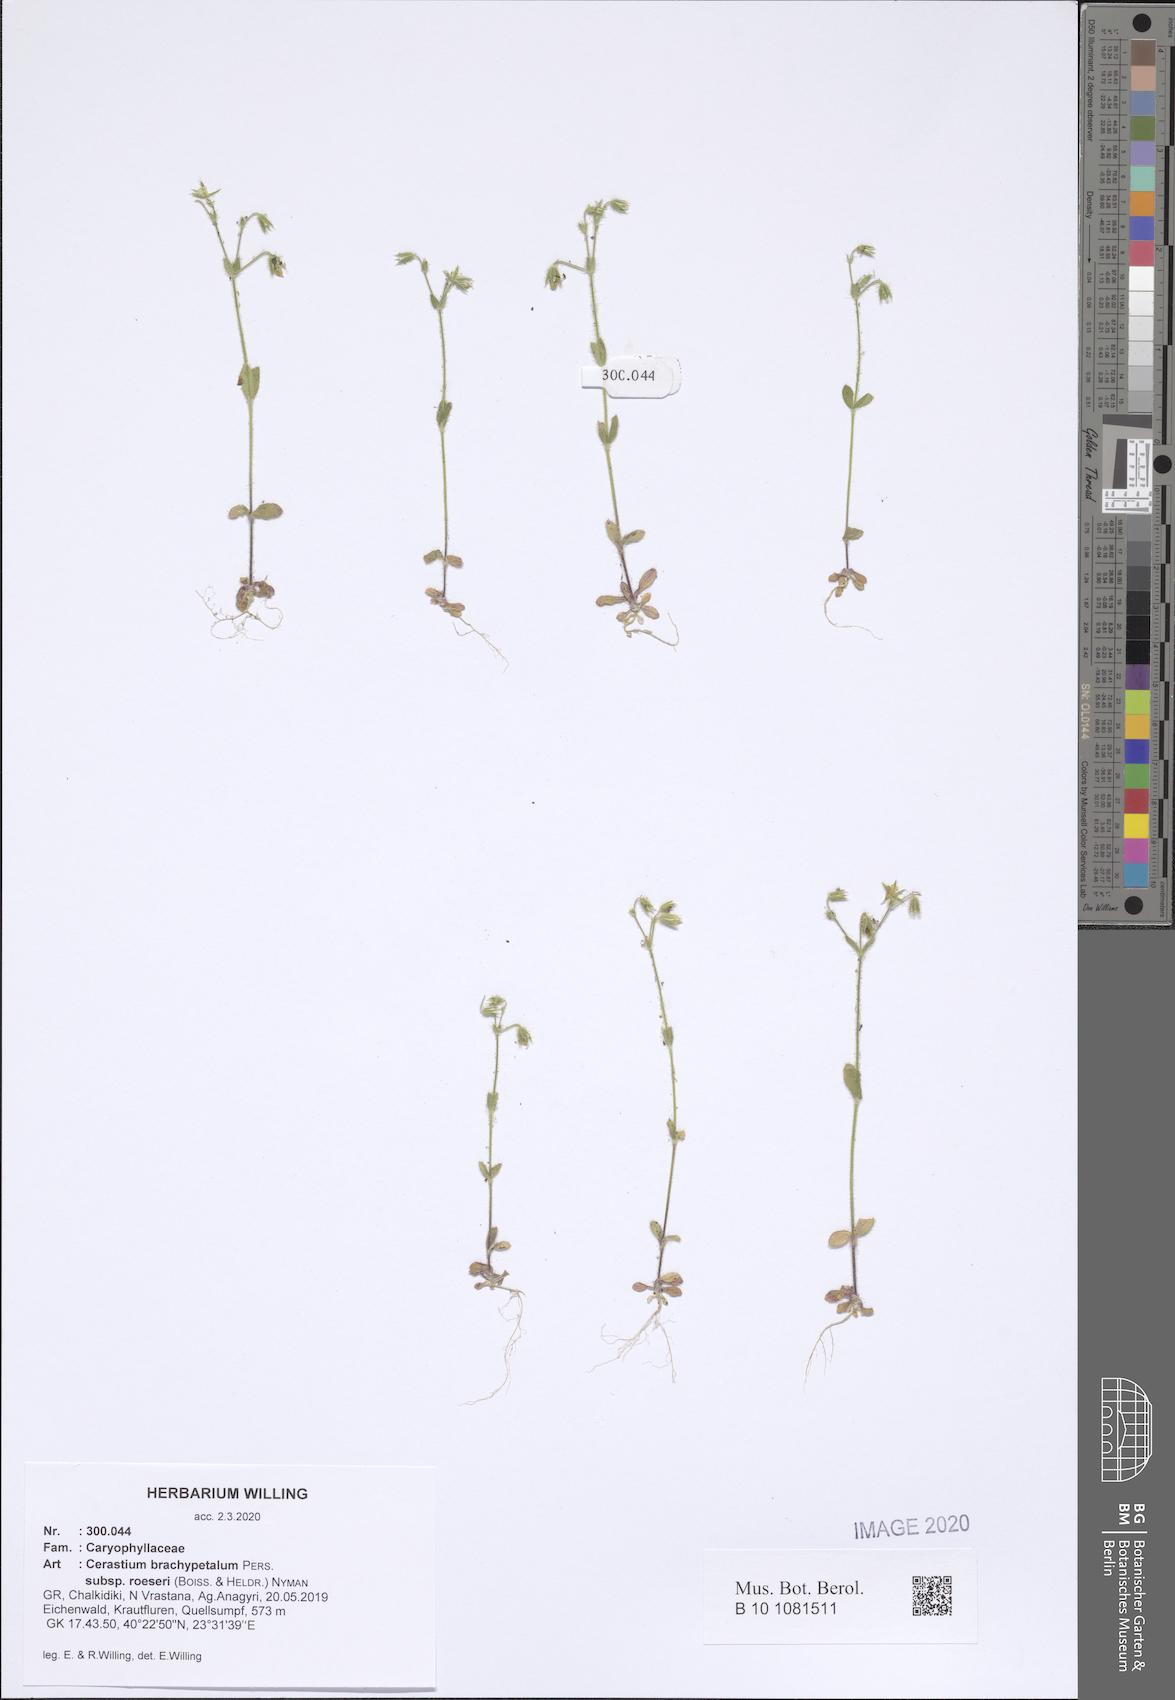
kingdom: Plantae
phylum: Tracheophyta
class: Magnoliopsida
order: Caryophyllales
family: Caryophyllaceae
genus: Cerastium
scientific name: Cerastium brachypetalum
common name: Grey mouse-ear
